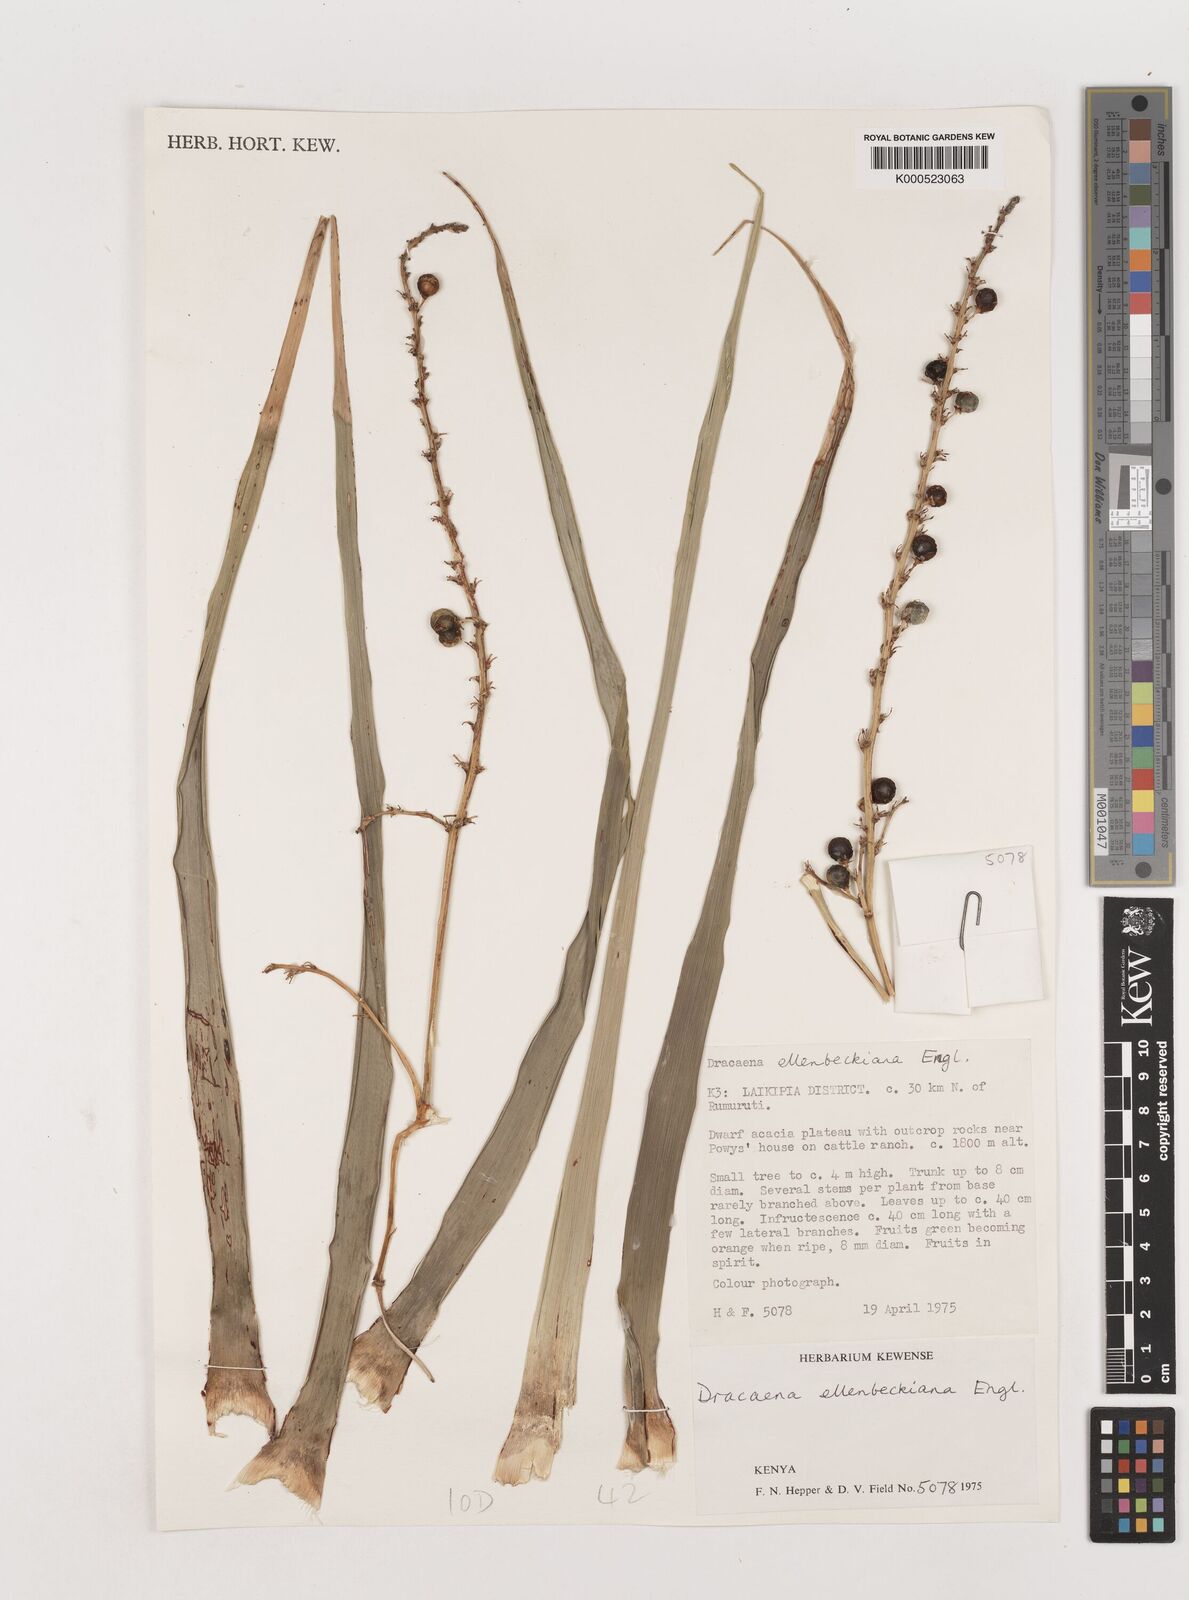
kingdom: Plantae
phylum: Tracheophyta
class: Liliopsida
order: Asparagales
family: Asparagaceae
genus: Dracaena
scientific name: Dracaena ellenbeckiana
